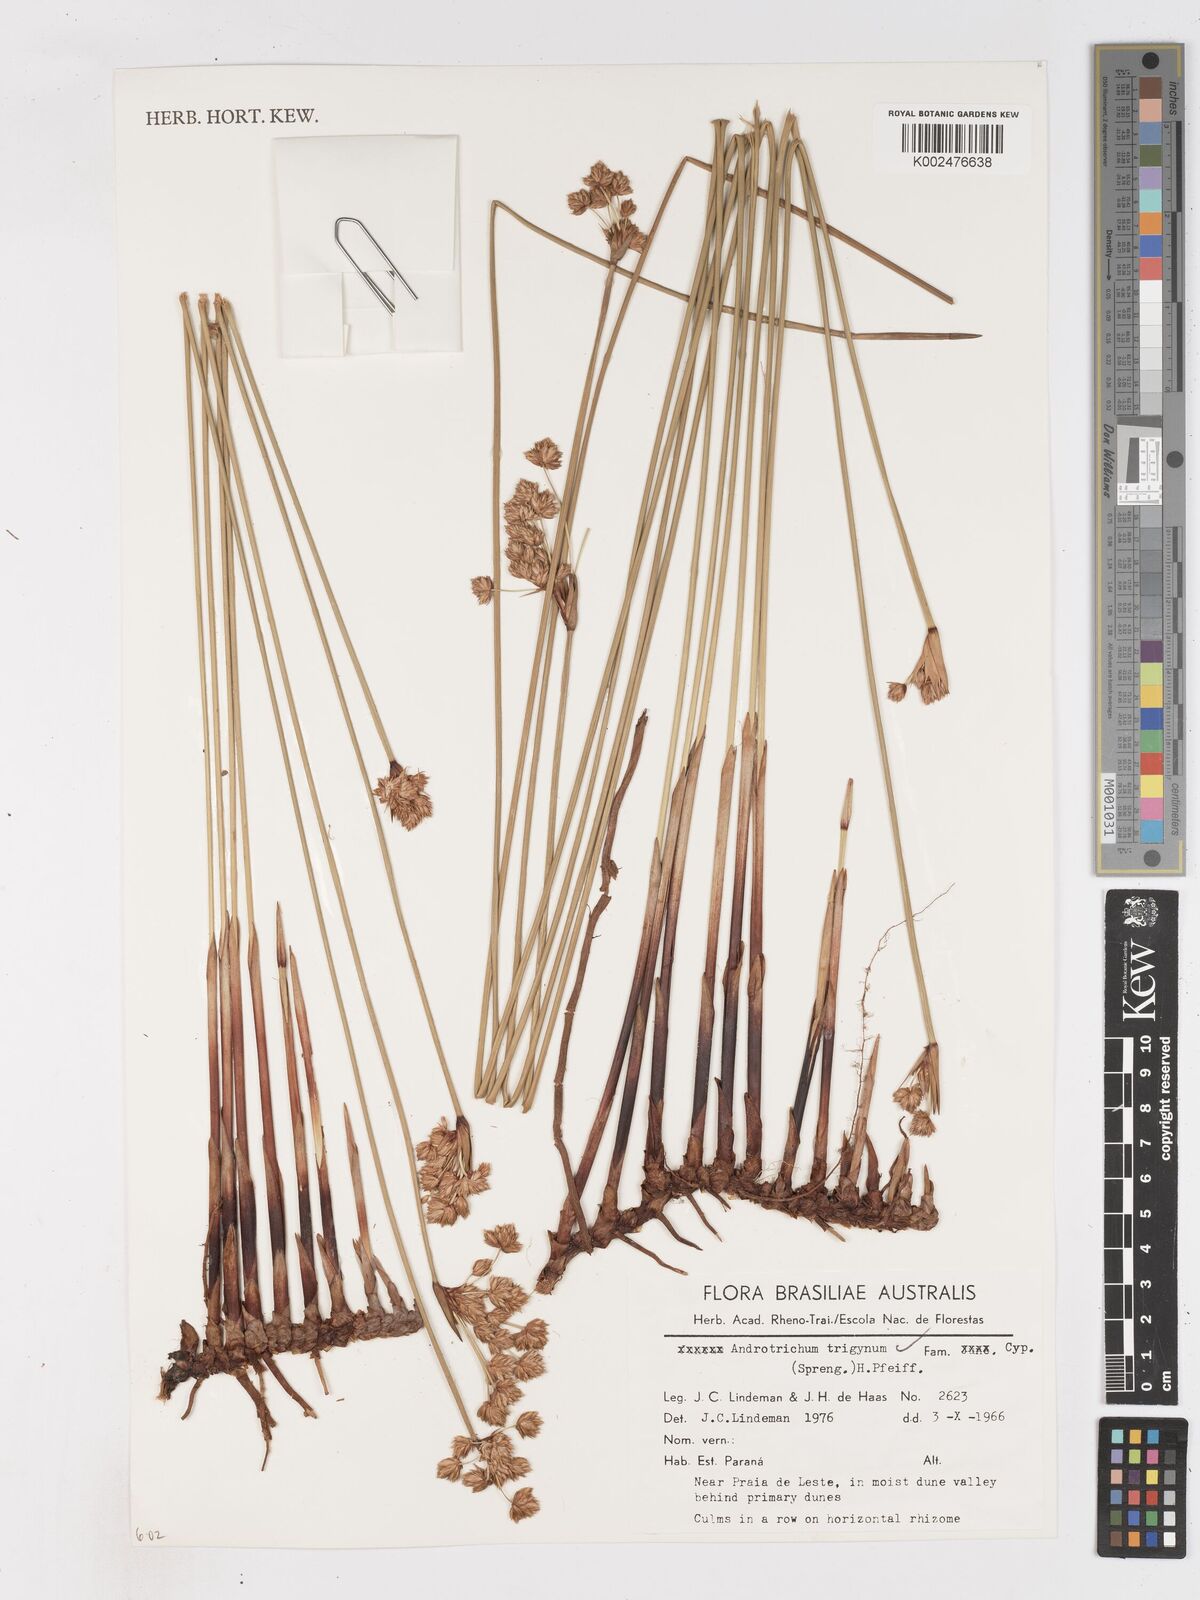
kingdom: Plantae
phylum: Tracheophyta
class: Liliopsida
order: Poales
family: Cyperaceae
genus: Cyperus
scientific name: Cyperus trigynus
